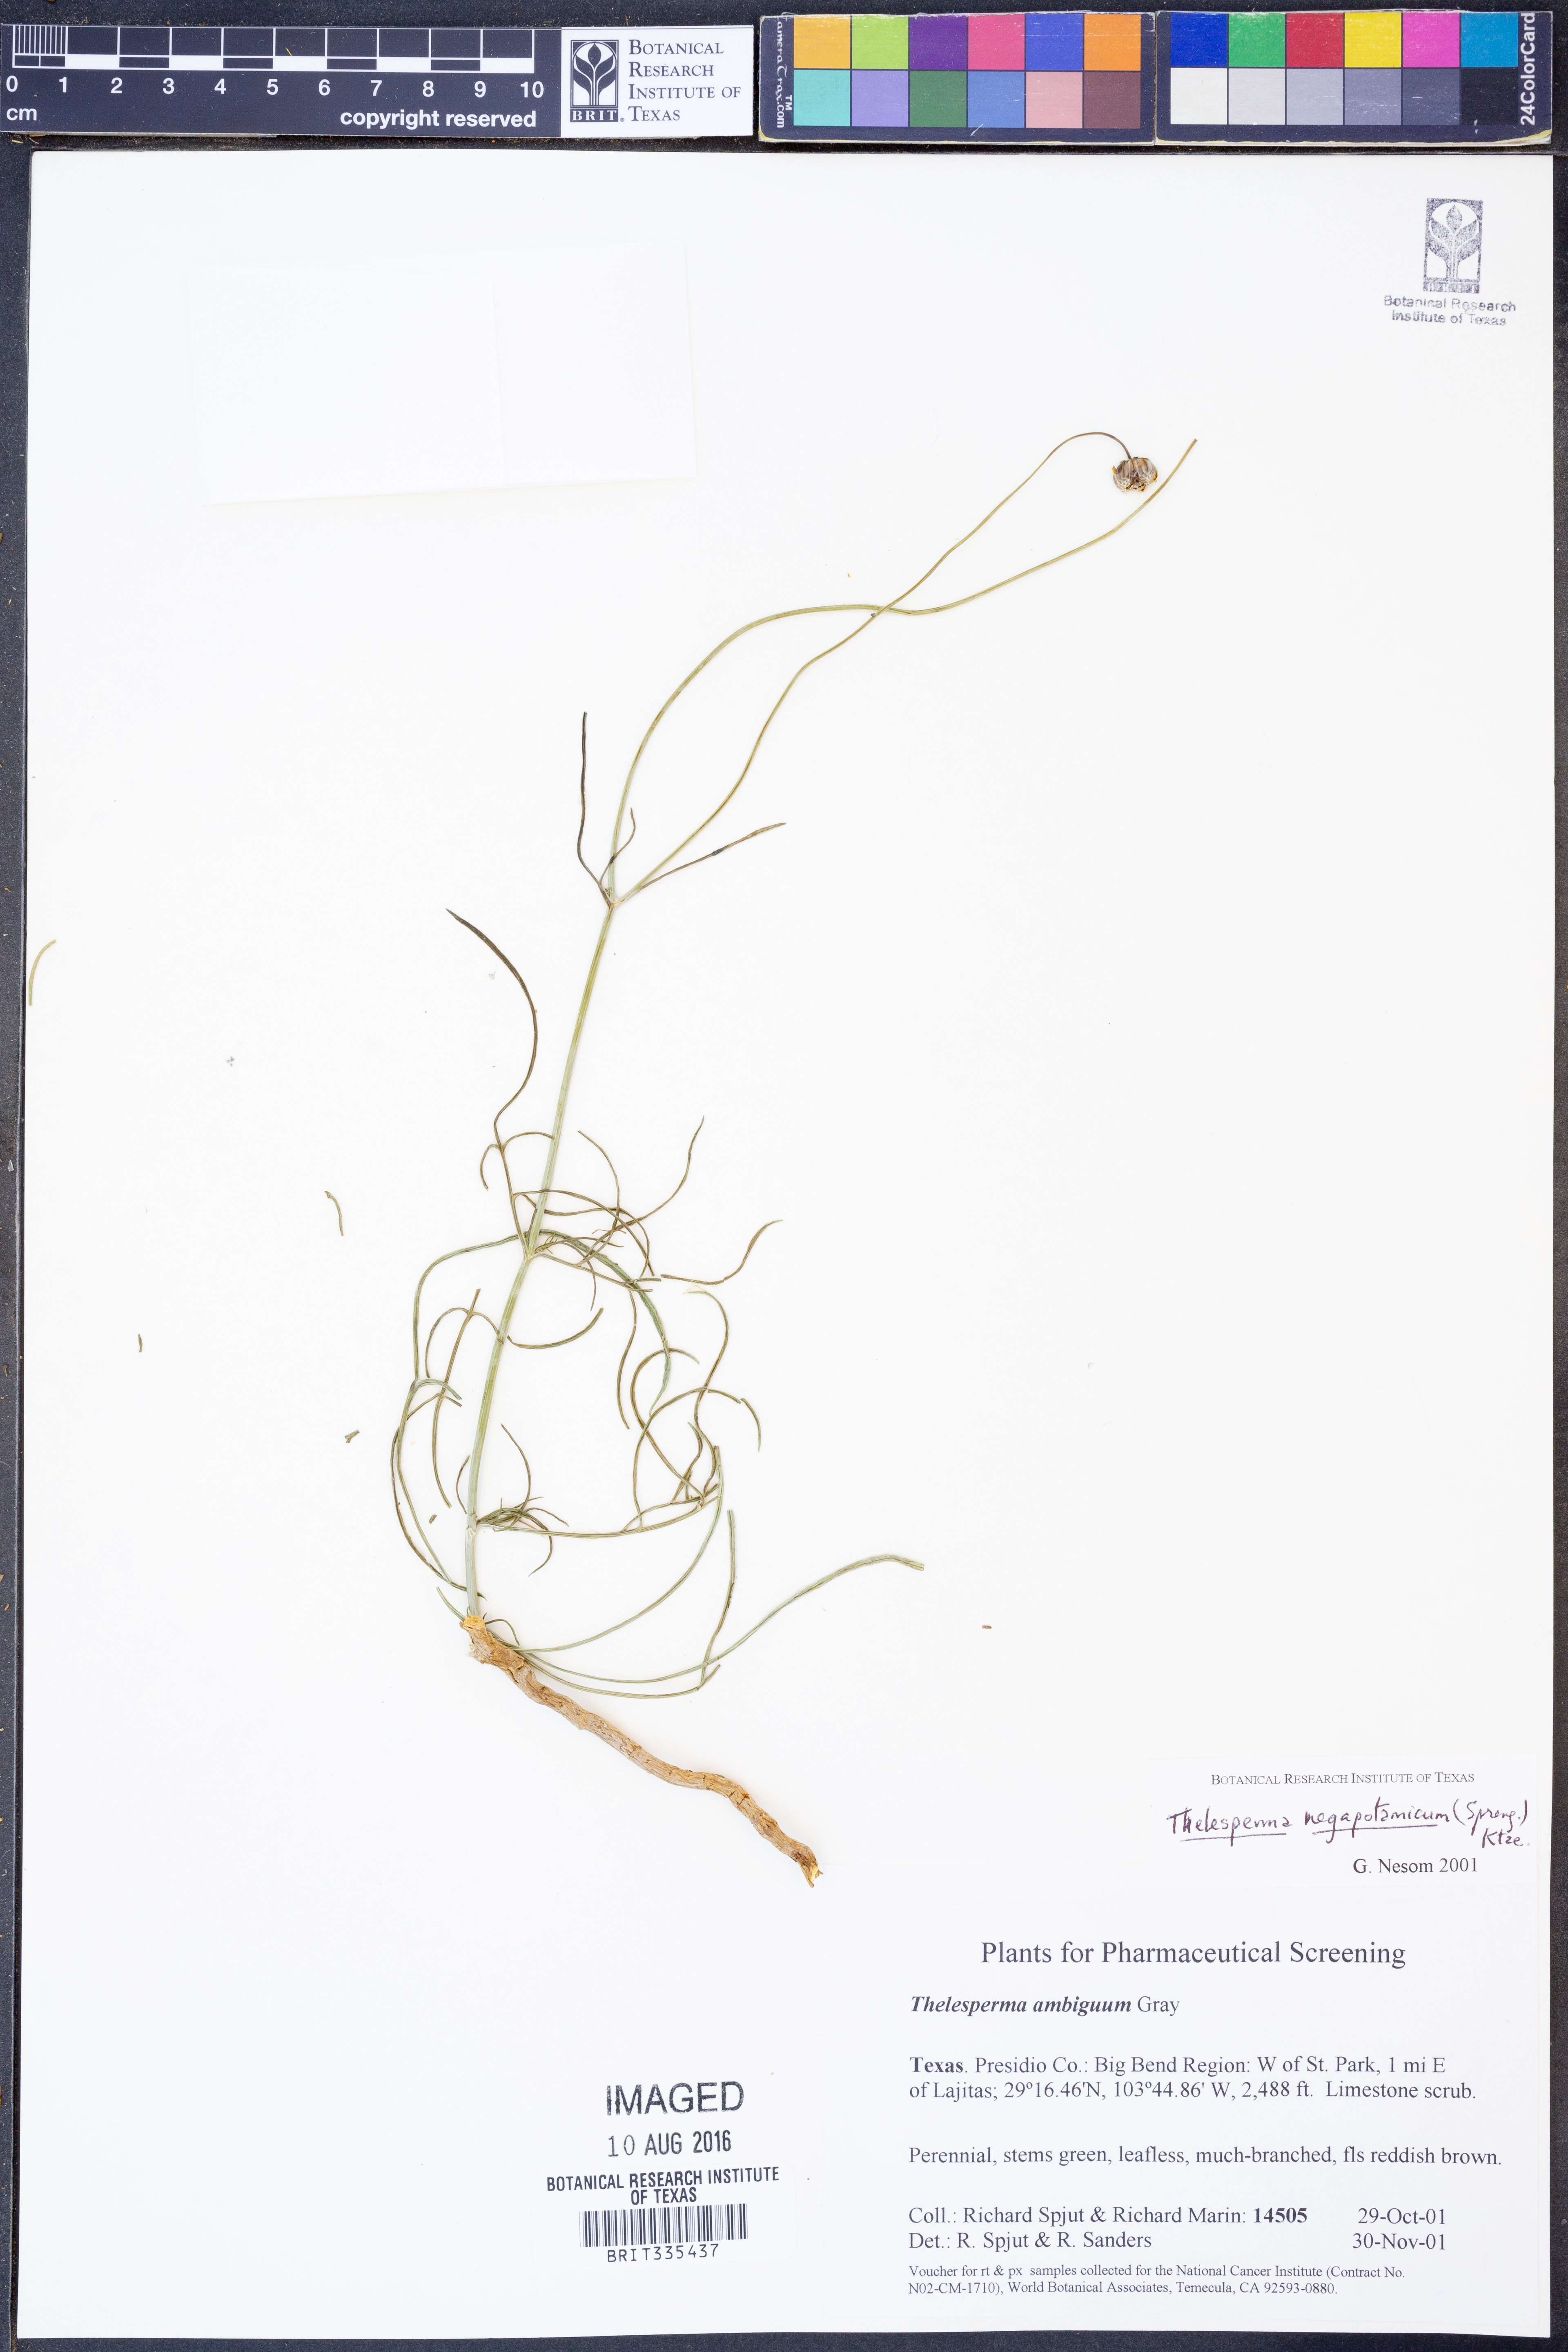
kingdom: Plantae
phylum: Tracheophyta
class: Magnoliopsida
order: Asterales
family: Asteraceae
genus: Thelesperma
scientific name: Thelesperma megapotamicum
